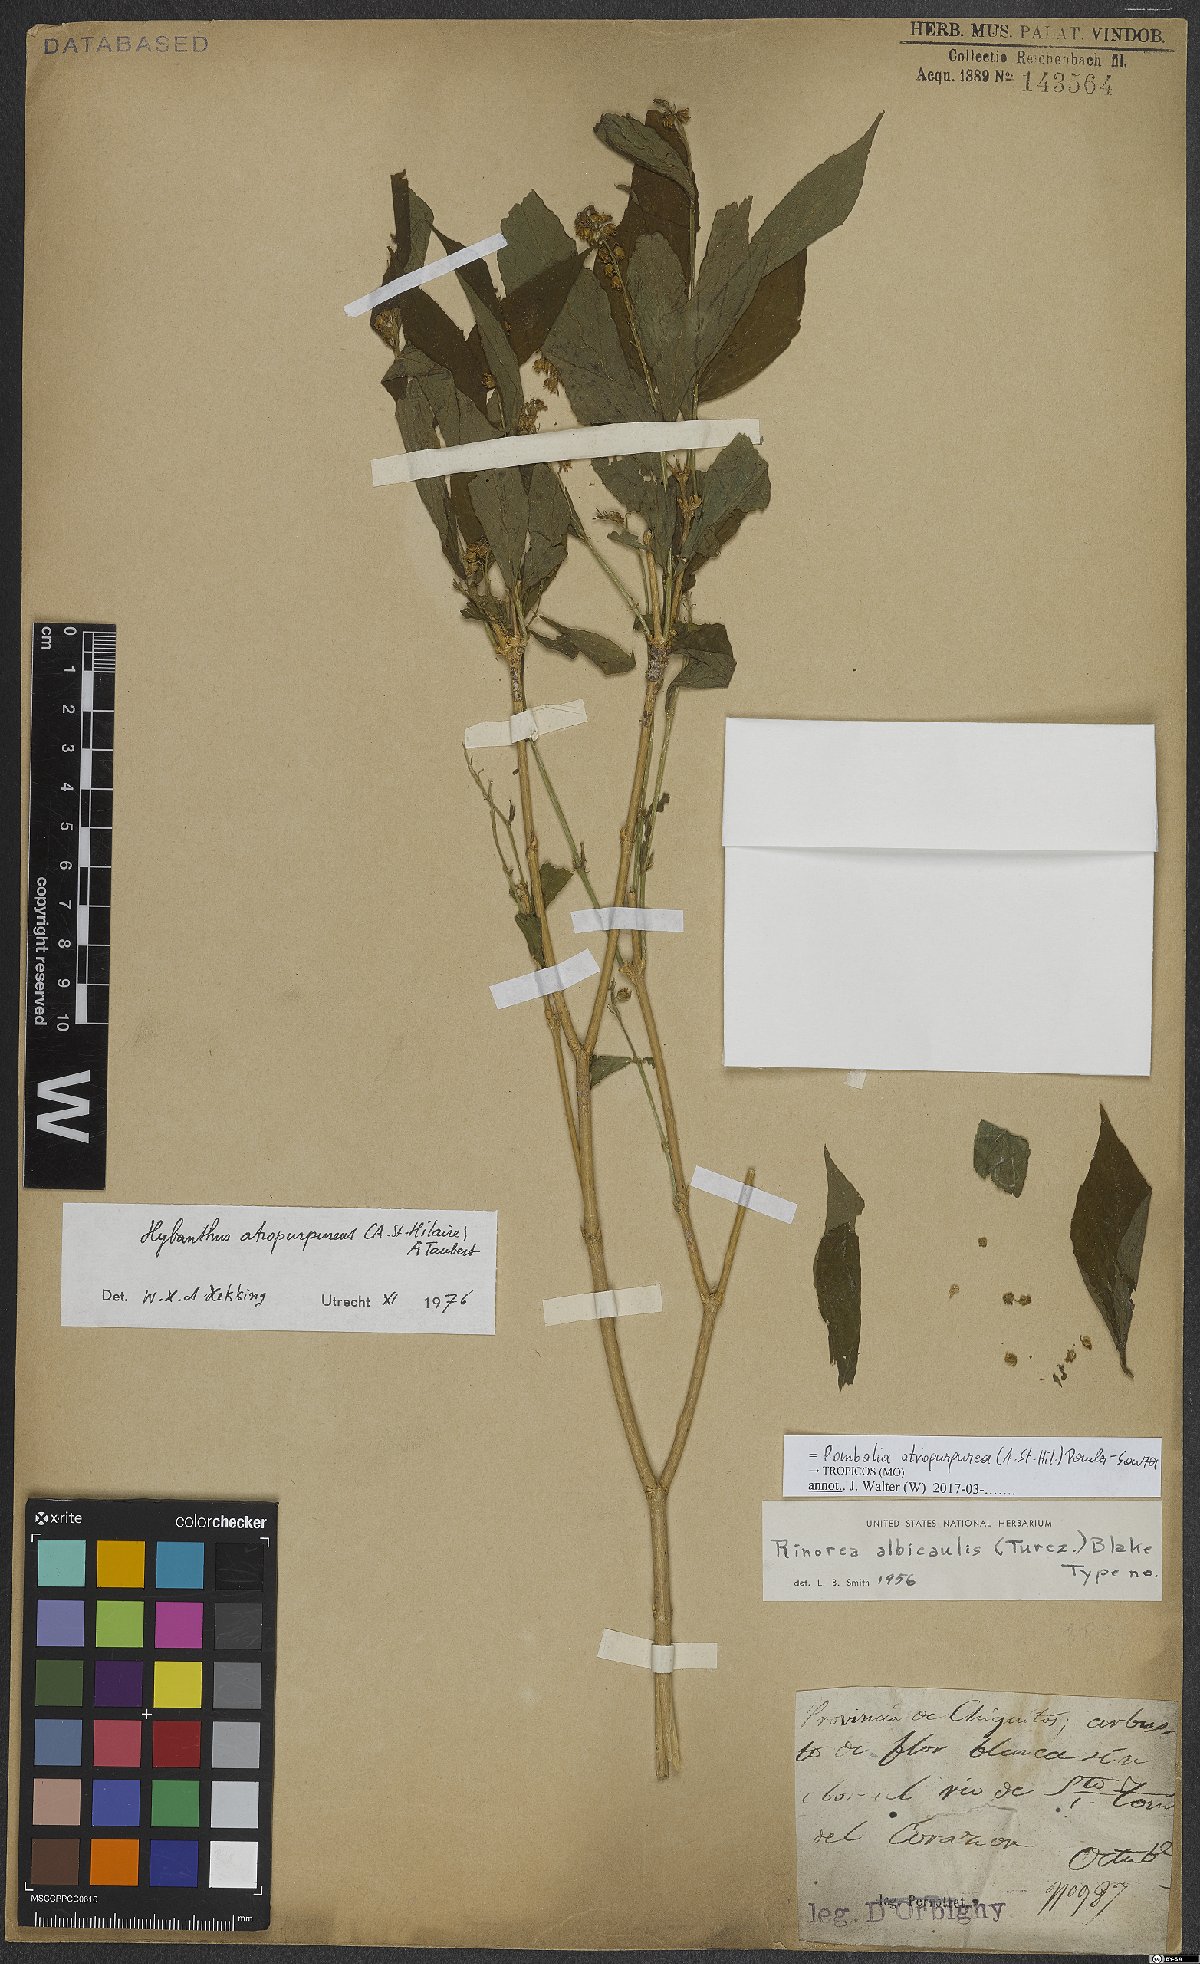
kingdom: Plantae
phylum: Tracheophyta
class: Magnoliopsida
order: Malpighiales
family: Violaceae
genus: Pombalia
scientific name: Pombalia atropurpurea
